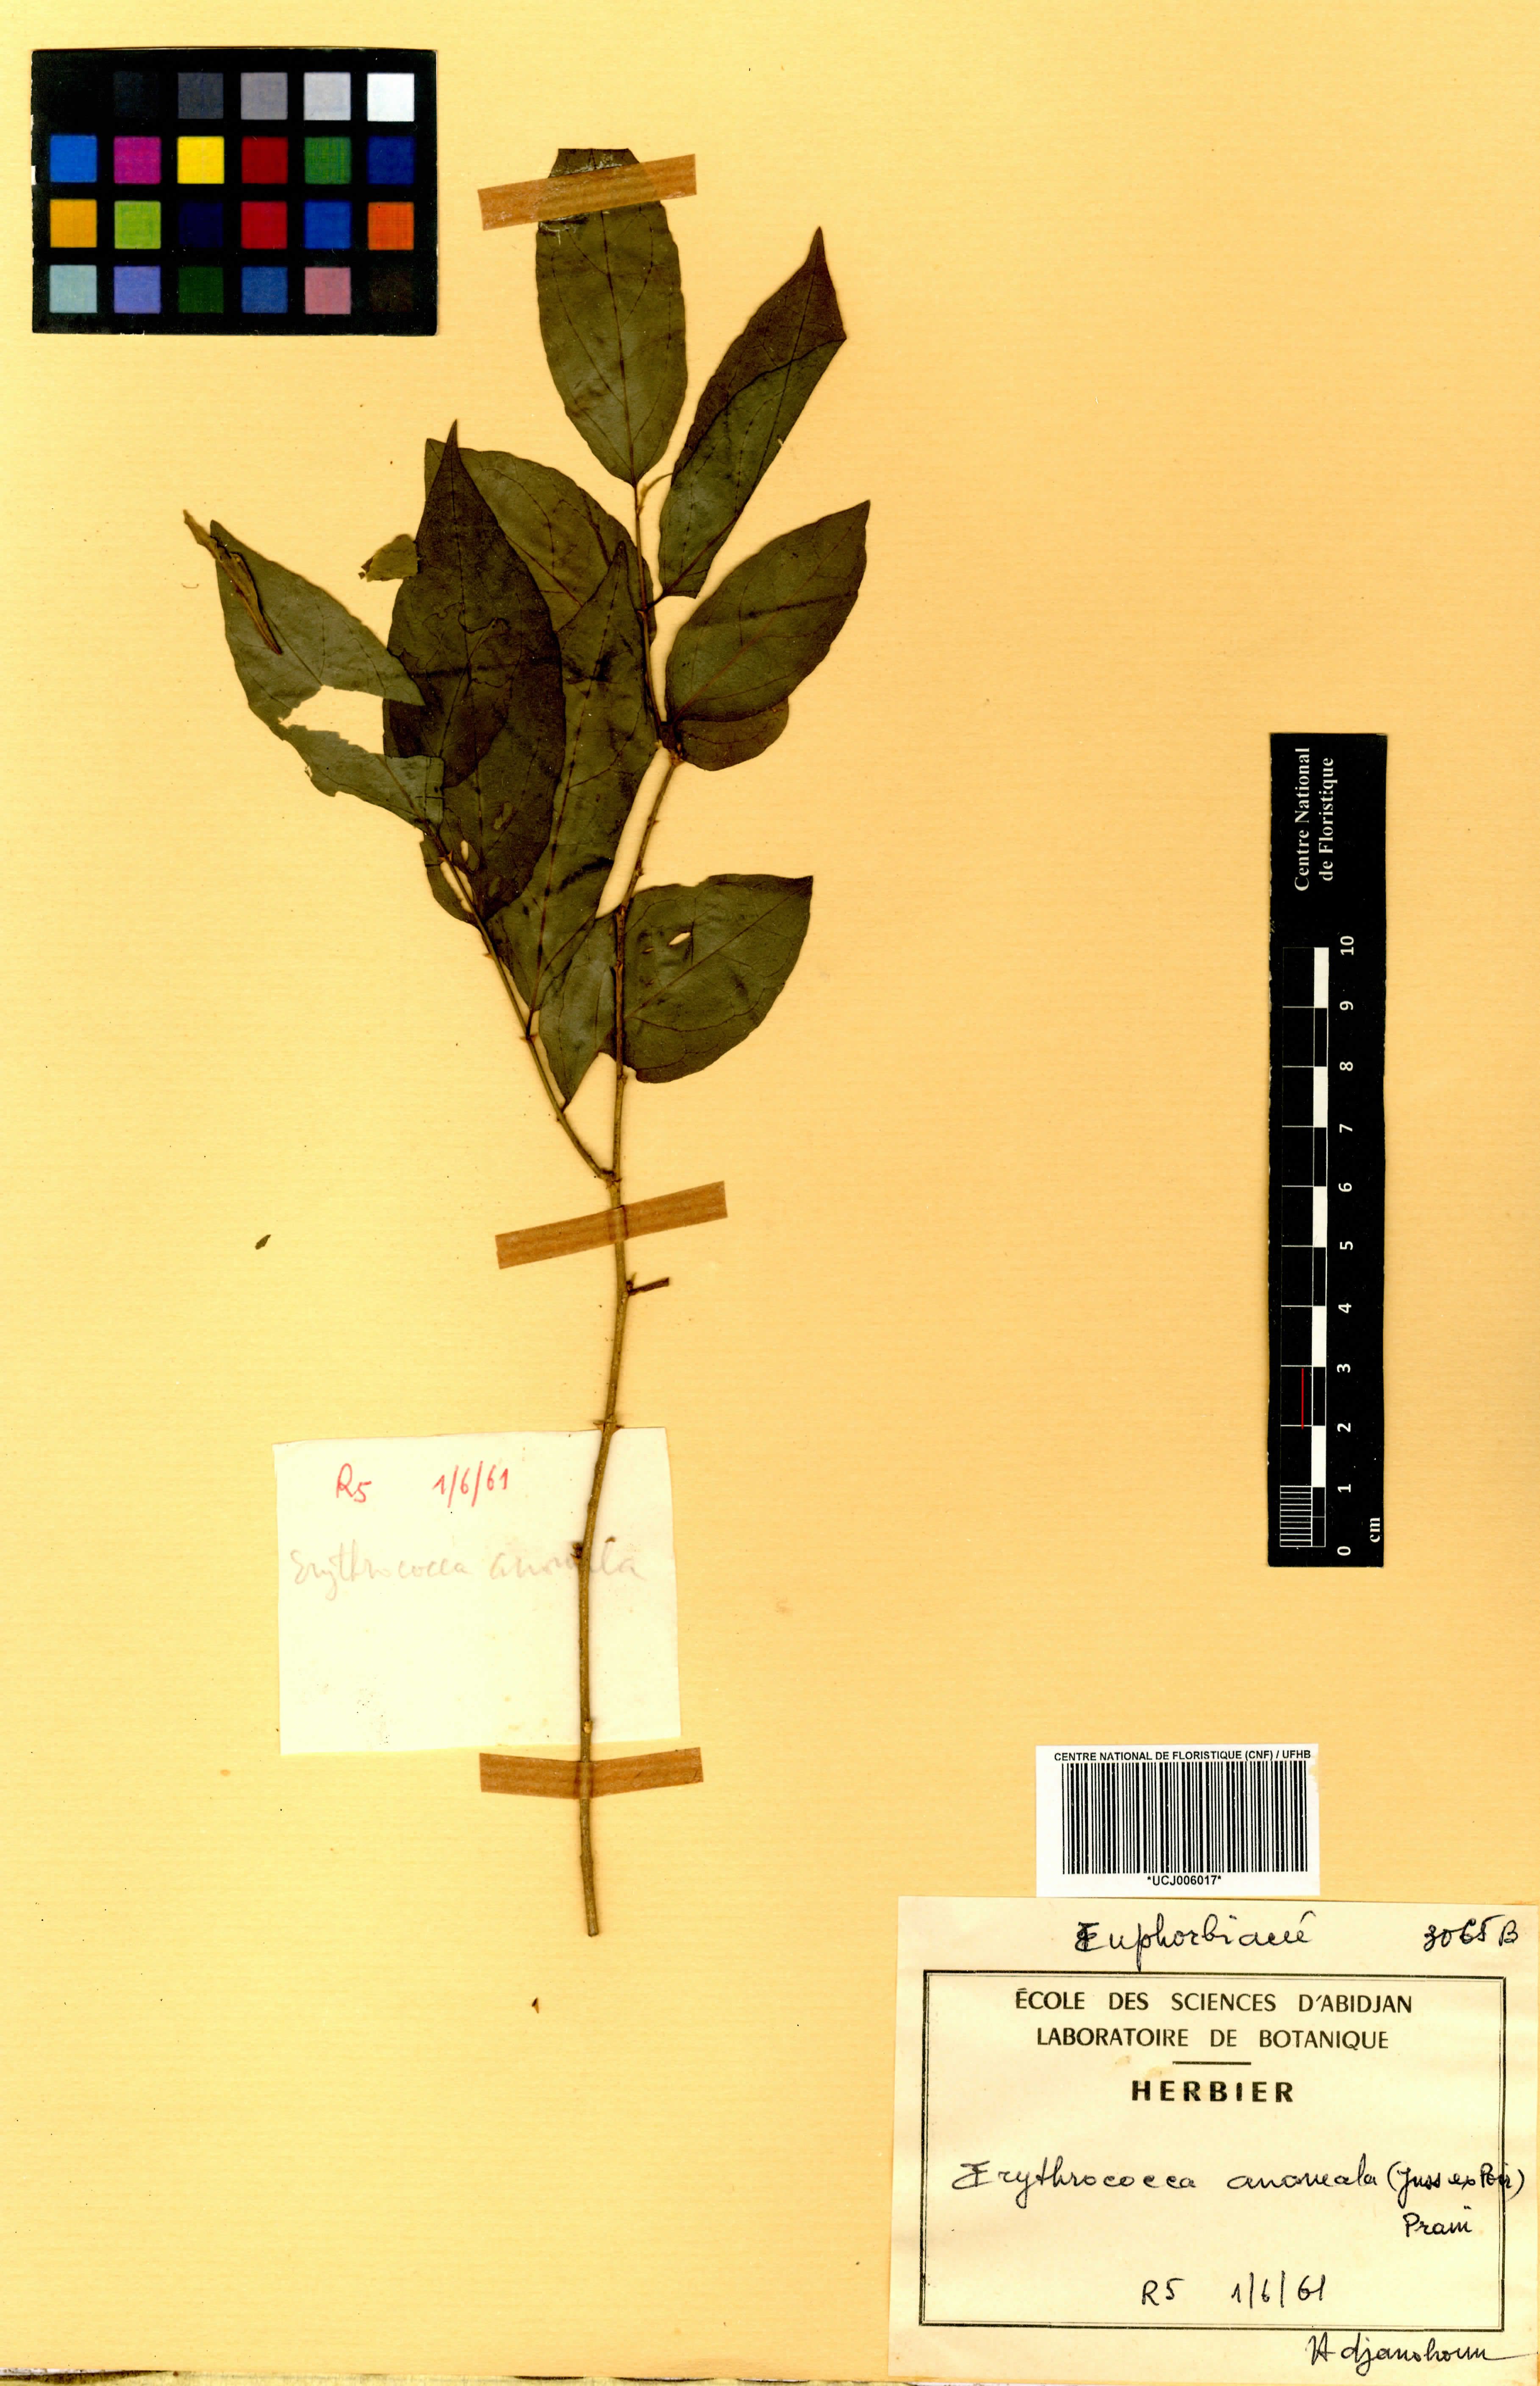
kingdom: Plantae
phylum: Tracheophyta
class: Magnoliopsida
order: Malpighiales
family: Euphorbiaceae
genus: Erythrococca
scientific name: Erythrococca anomala
